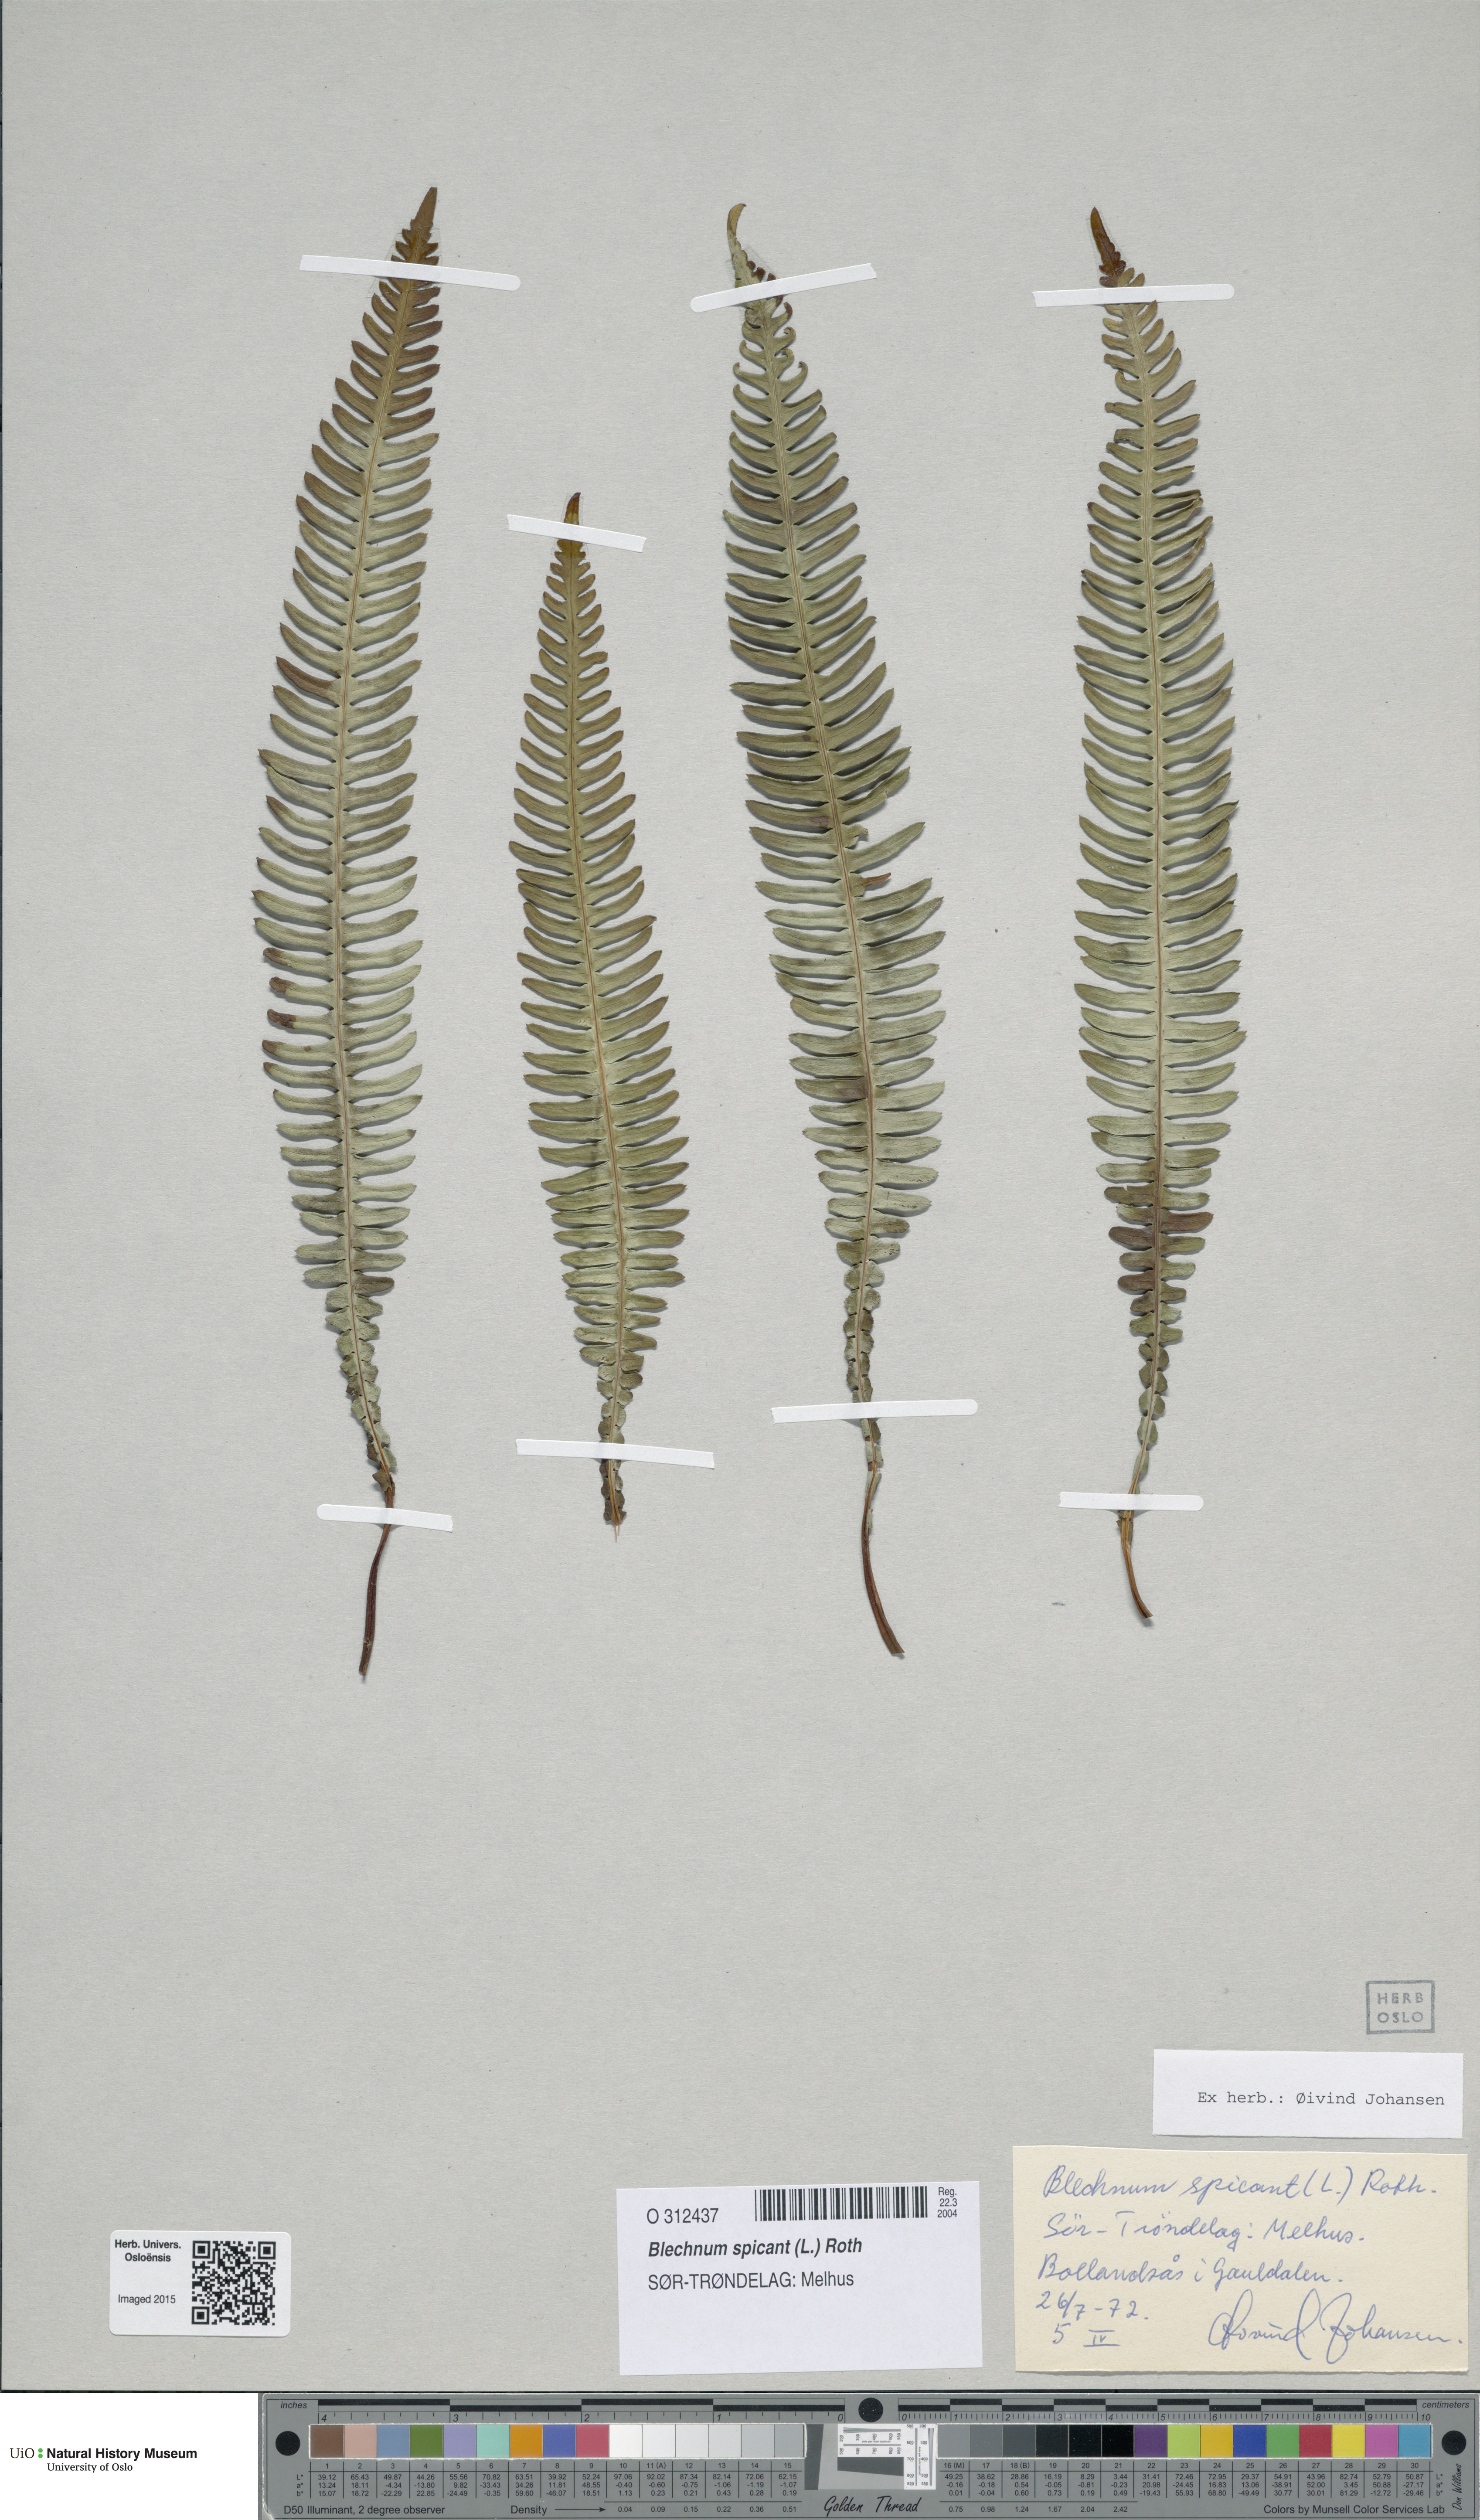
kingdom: Plantae
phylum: Tracheophyta
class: Polypodiopsida
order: Polypodiales
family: Blechnaceae
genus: Struthiopteris
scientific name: Struthiopteris spicant
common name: Deer fern
